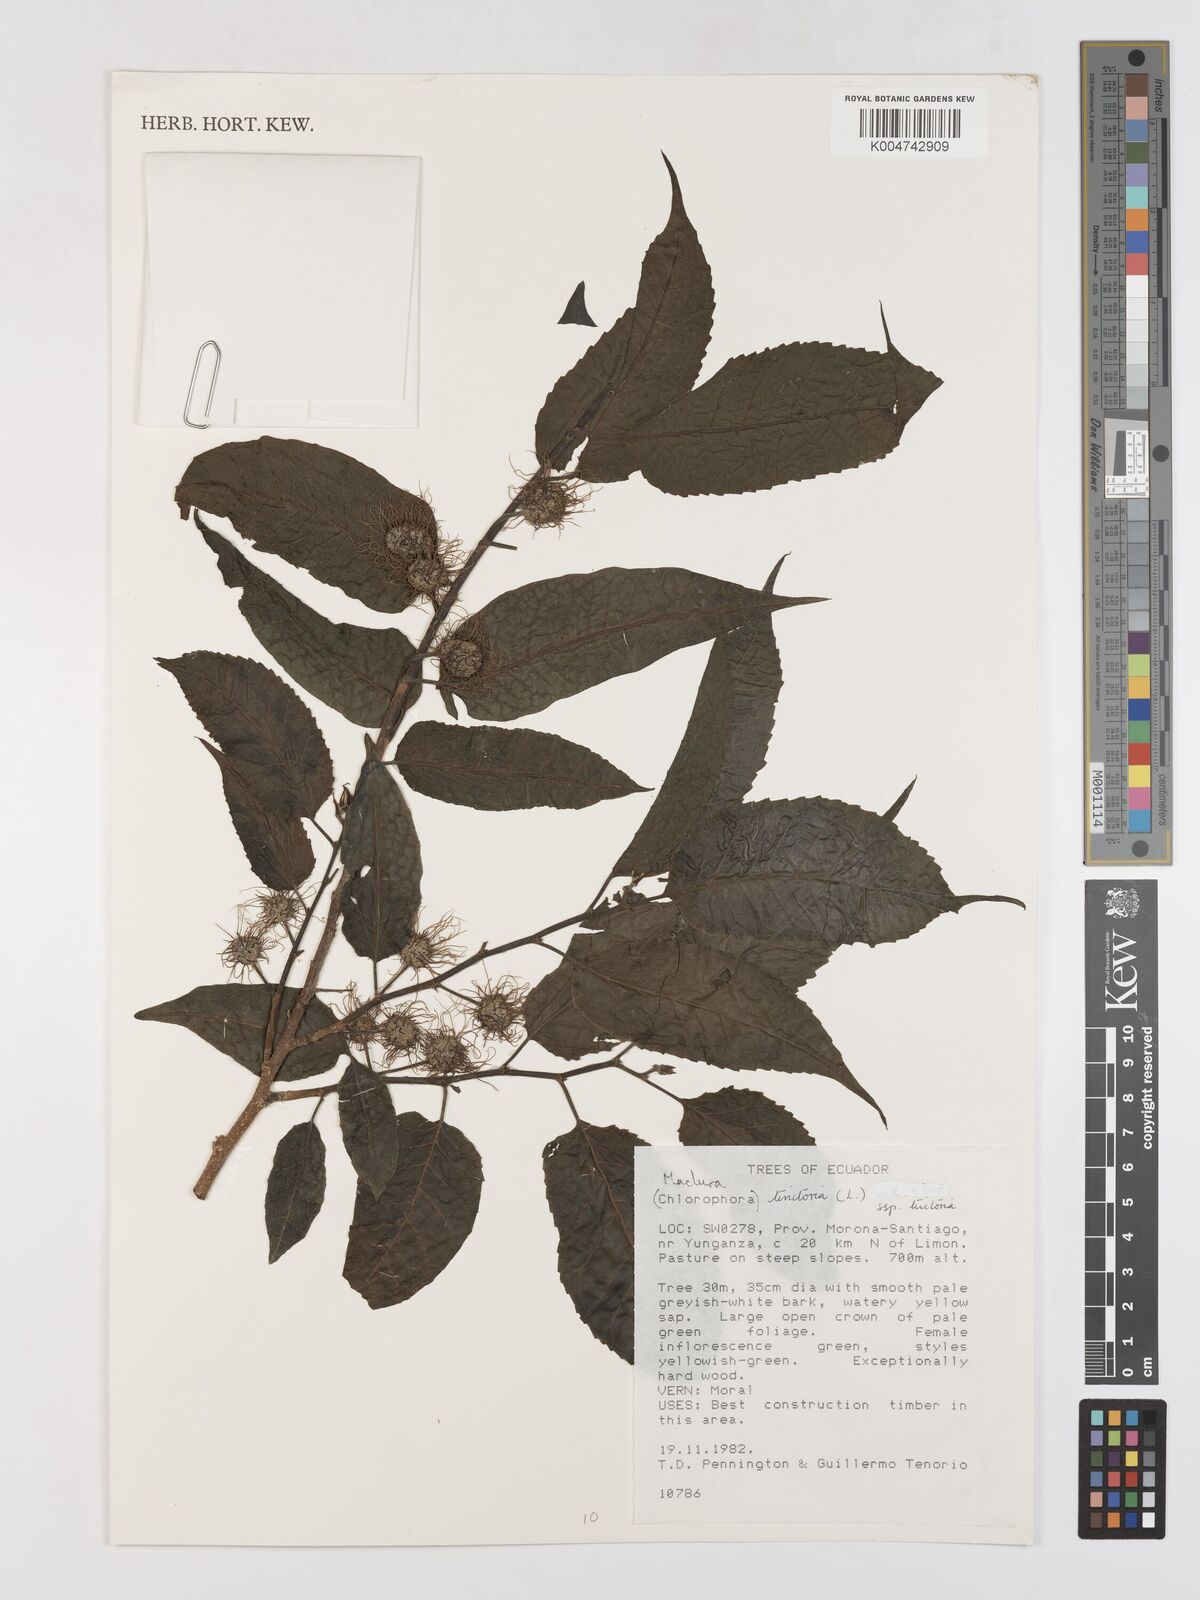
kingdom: Plantae
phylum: Tracheophyta
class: Magnoliopsida
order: Rosales
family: Moraceae
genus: Maclura
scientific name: Maclura tinctoria
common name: Old fustic
